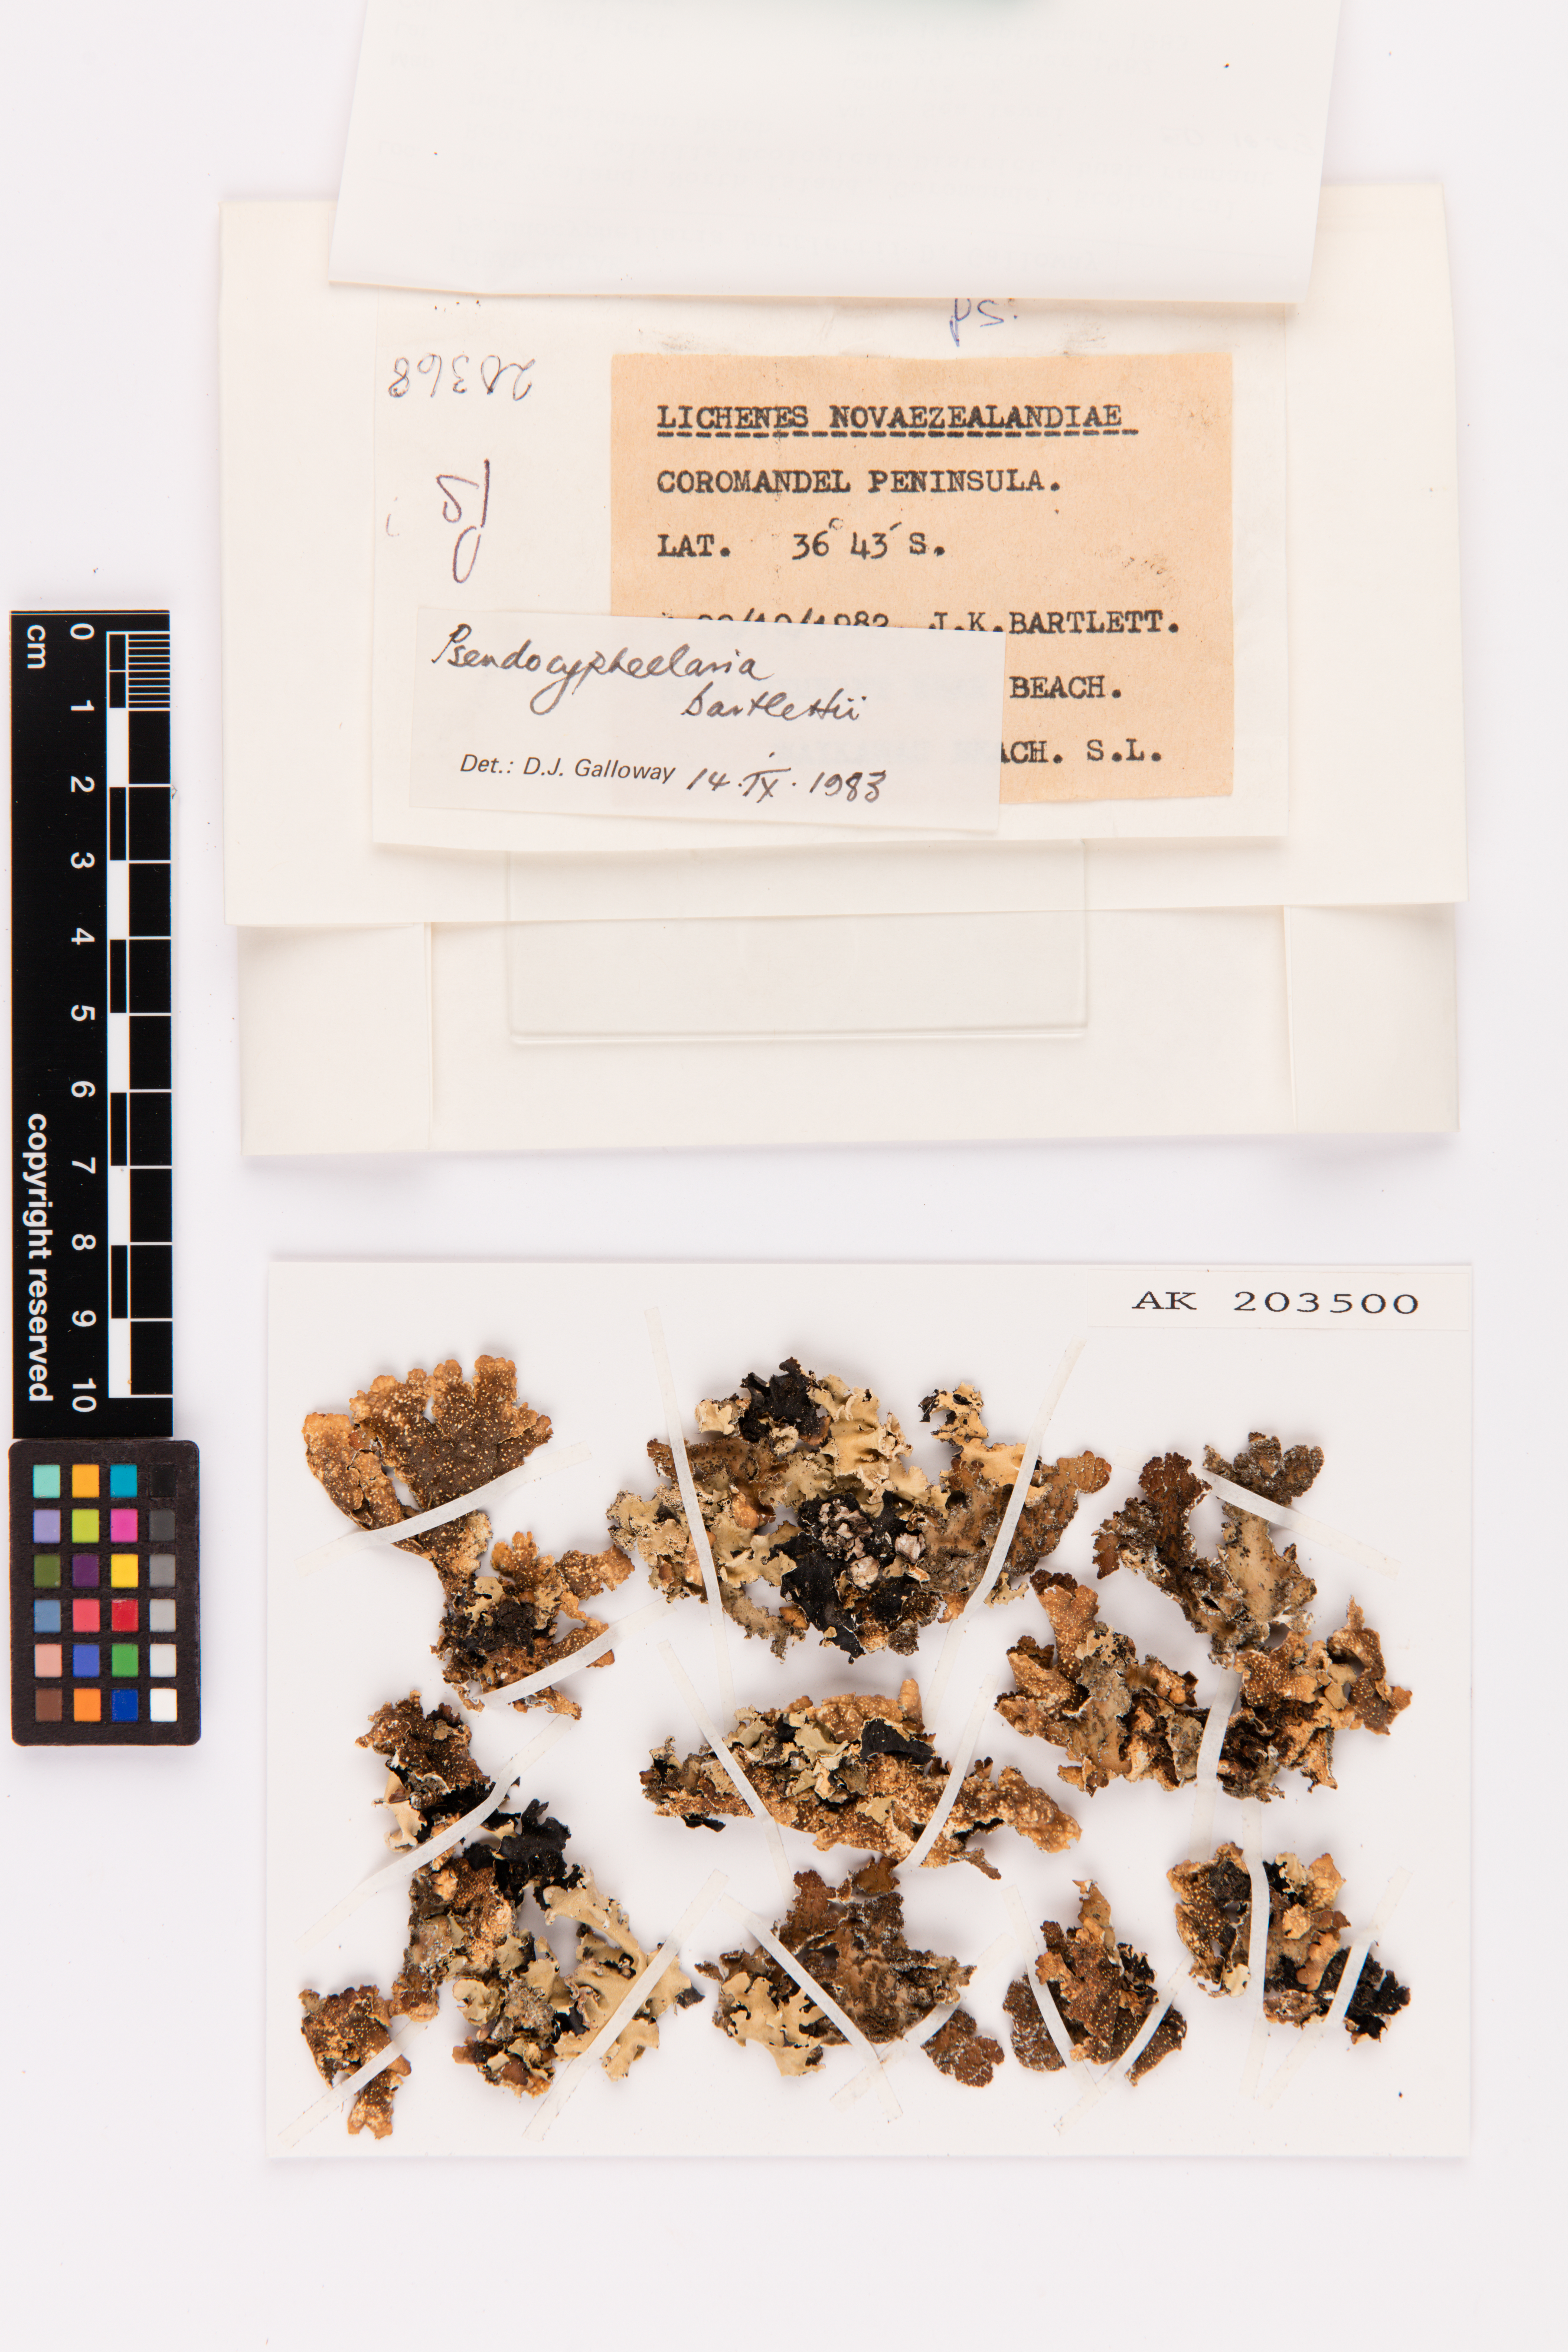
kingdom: Fungi
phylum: Ascomycota
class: Lecanoromycetes
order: Peltigerales
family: Lobariaceae
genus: Pseudocyphellaria
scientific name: Pseudocyphellaria bartlettii
